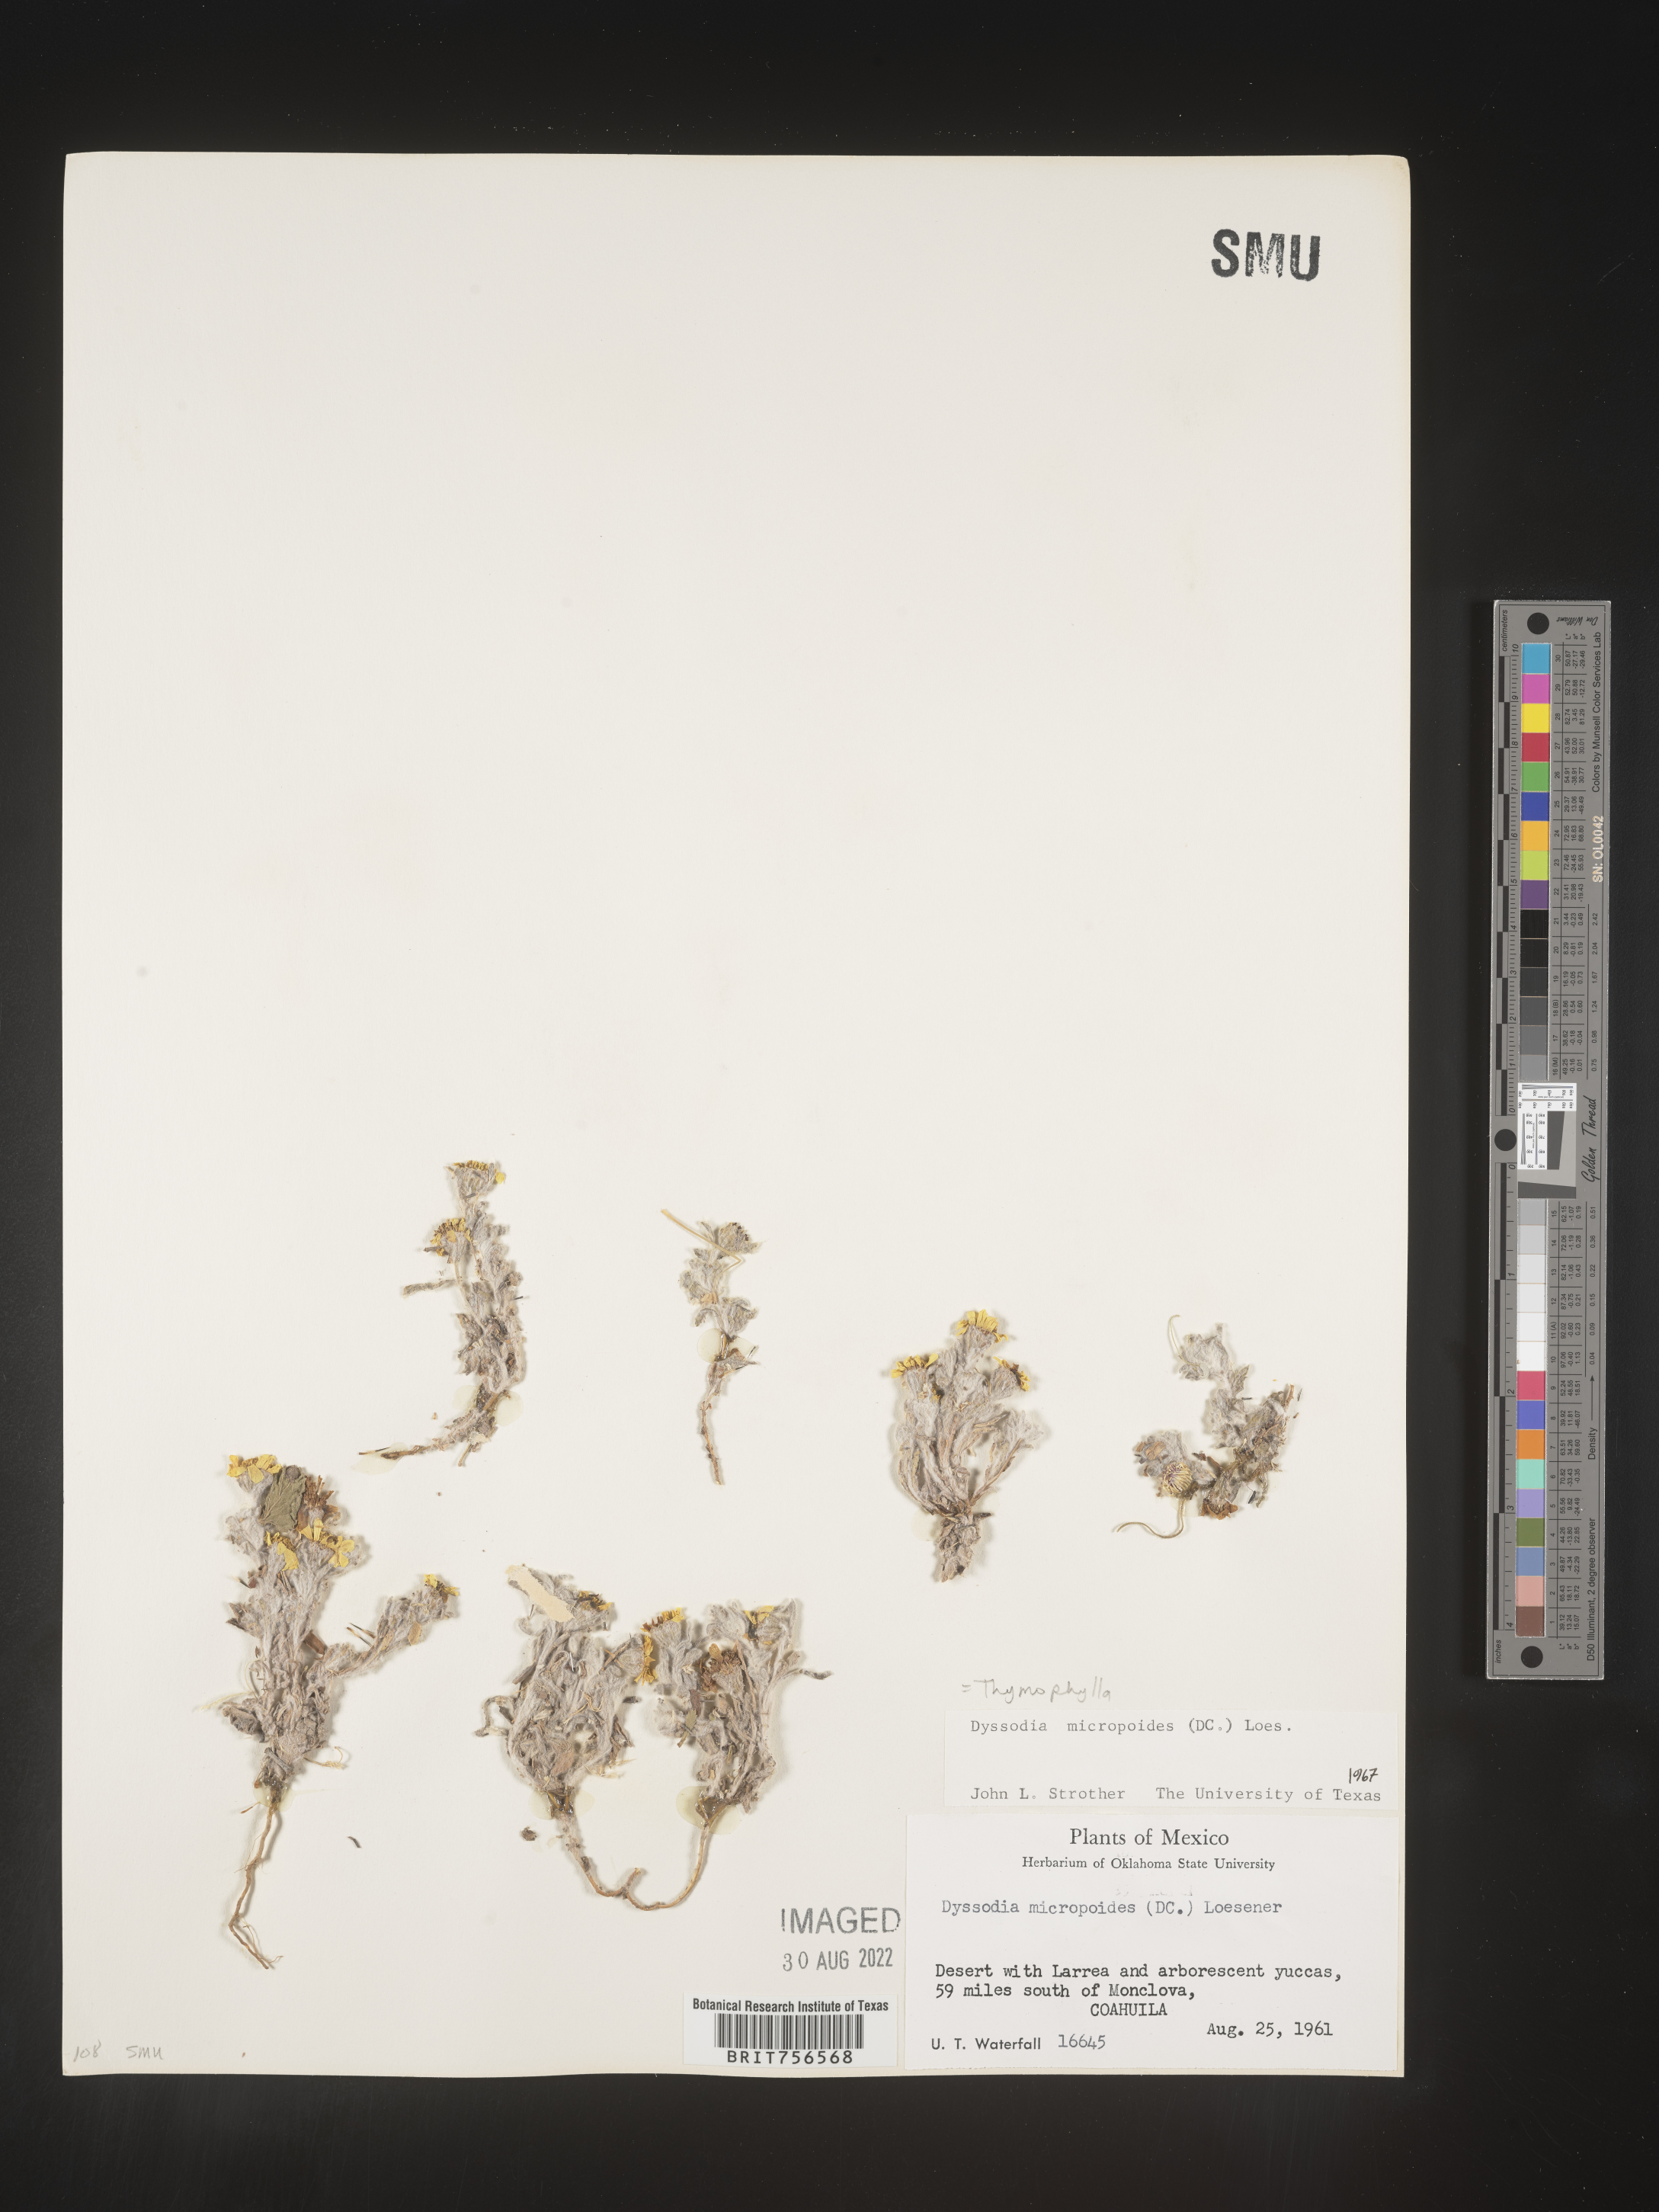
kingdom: Plantae
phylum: Tracheophyta
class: Magnoliopsida
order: Asterales
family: Asteraceae
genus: Thymophylla
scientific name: Thymophylla micropoides
